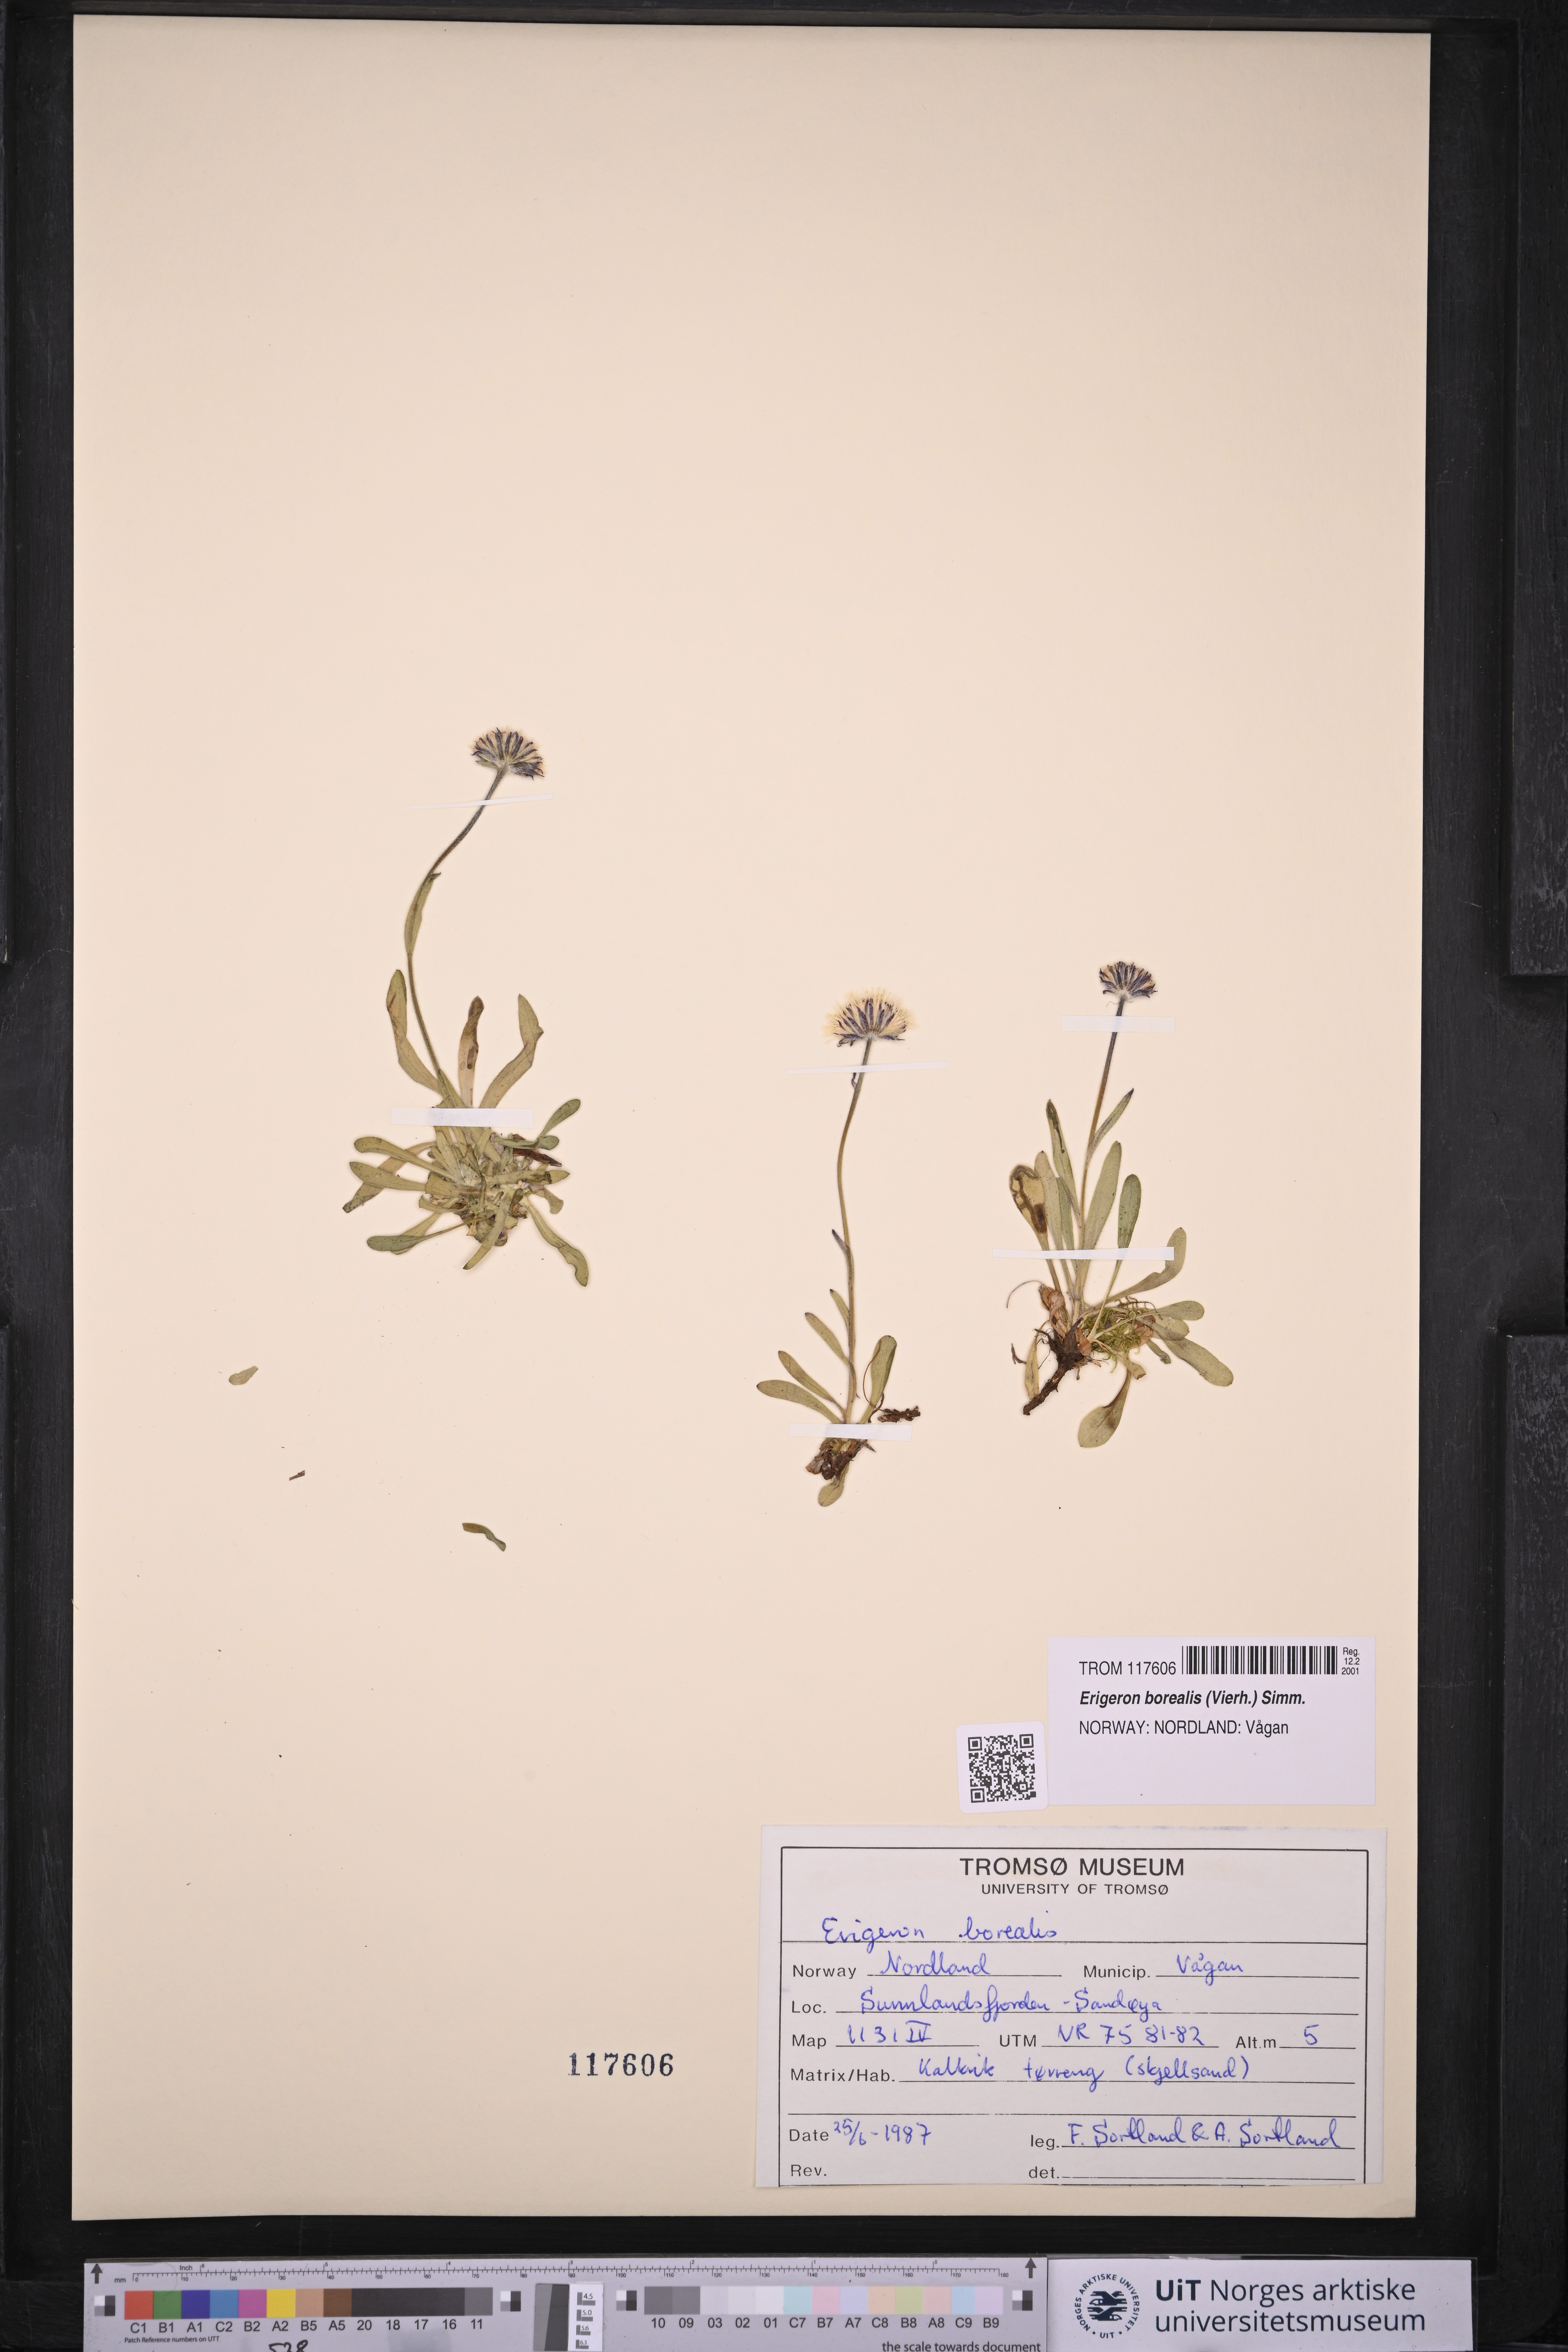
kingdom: Plantae
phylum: Tracheophyta
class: Magnoliopsida
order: Asterales
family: Asteraceae
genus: Erigeron
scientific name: Erigeron borealis
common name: Alpine fleabane
